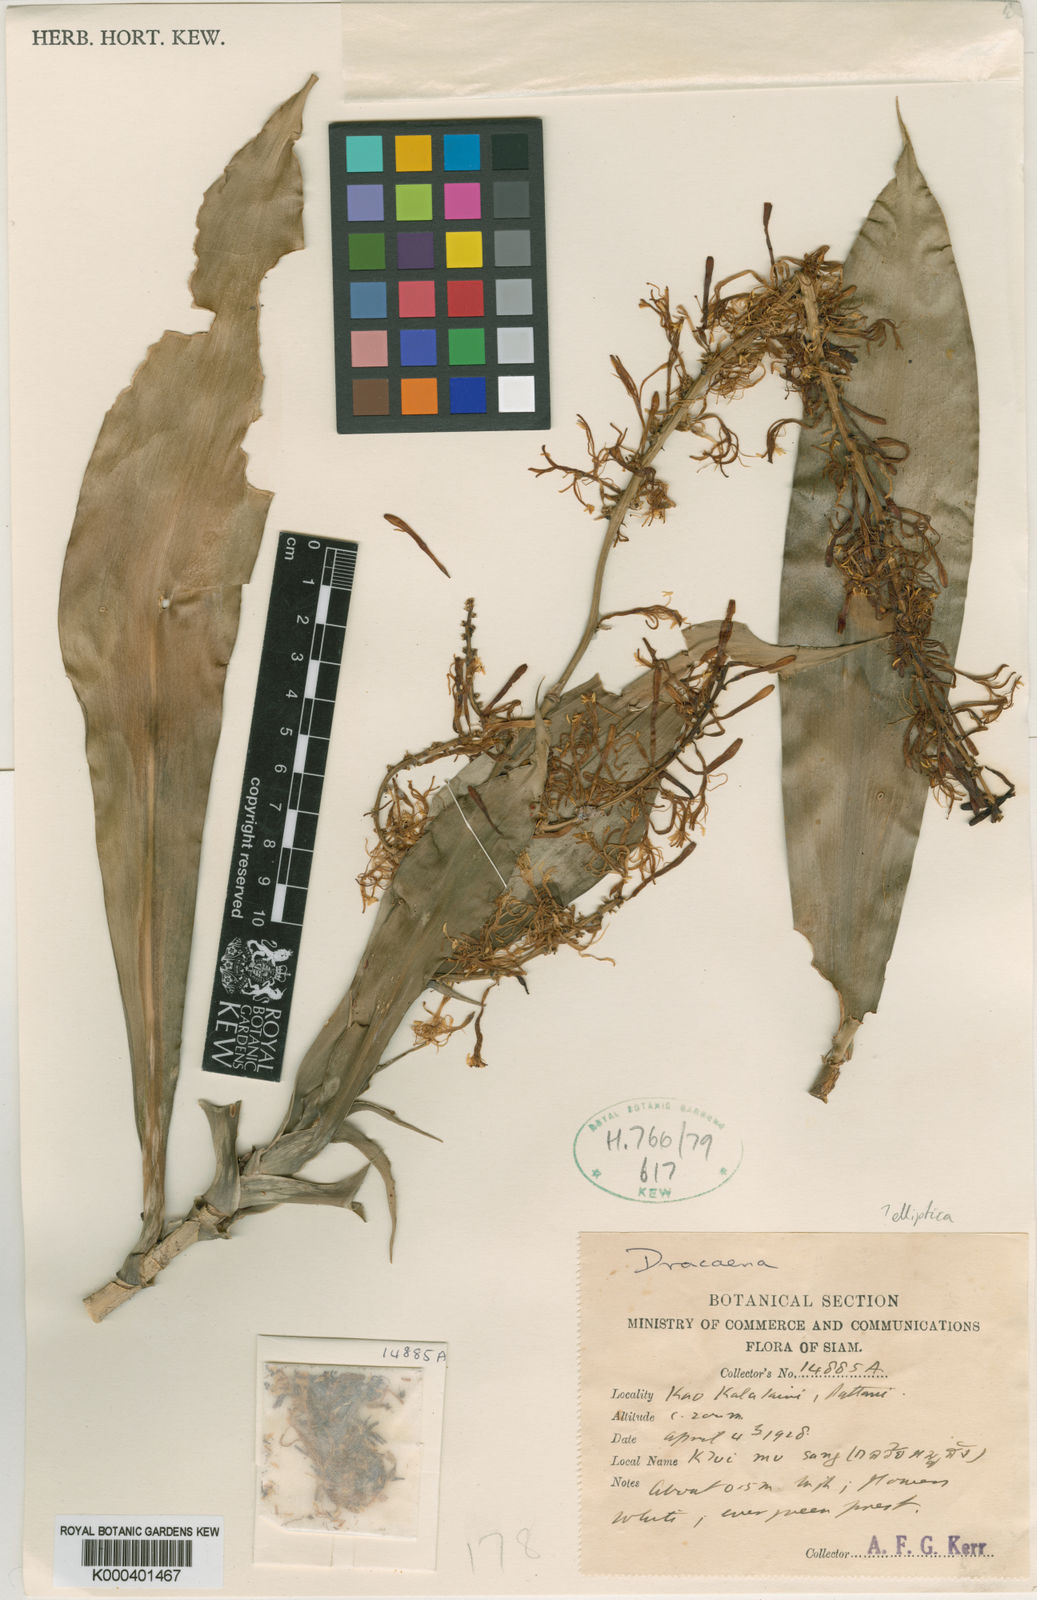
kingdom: Plantae
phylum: Tracheophyta
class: Liliopsida
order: Asparagales
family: Asparagaceae
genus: Dracaena
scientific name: Dracaena elliptica
